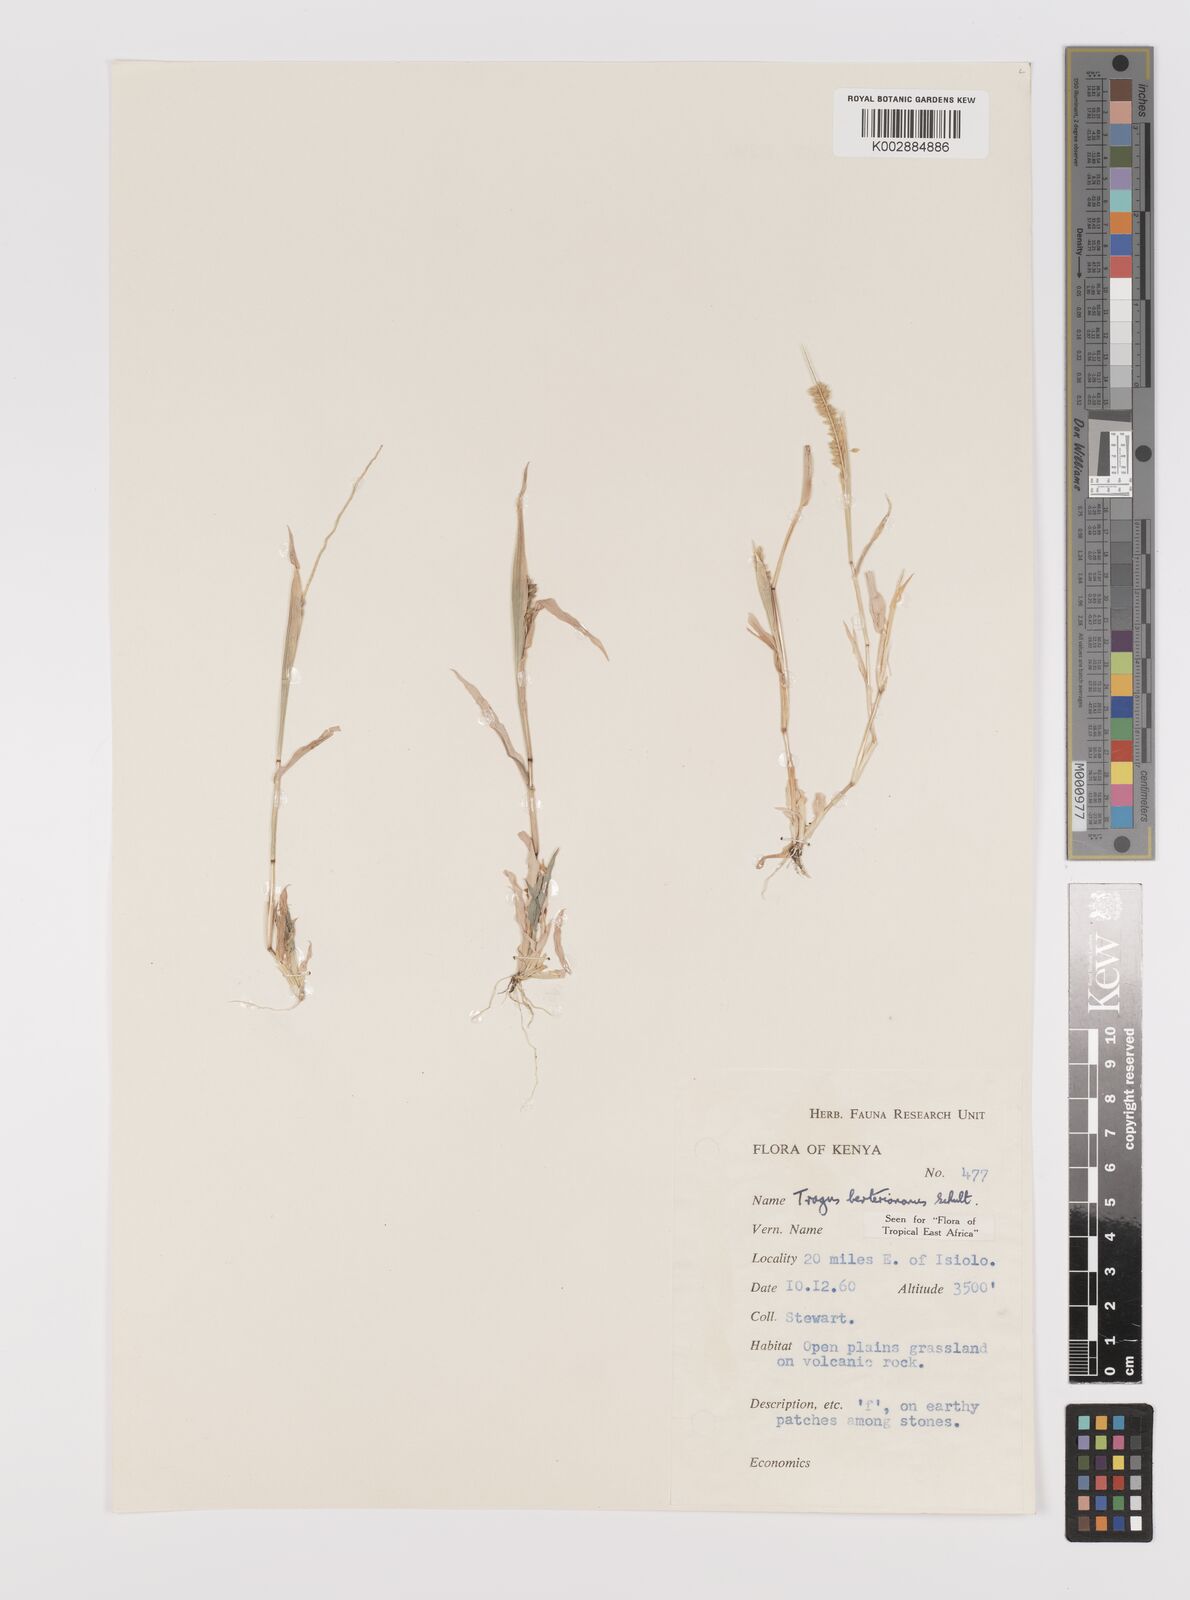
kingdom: Plantae
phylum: Tracheophyta
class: Liliopsida
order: Poales
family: Poaceae
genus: Tragus
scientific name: Tragus berteronianus
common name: African bur-grass
